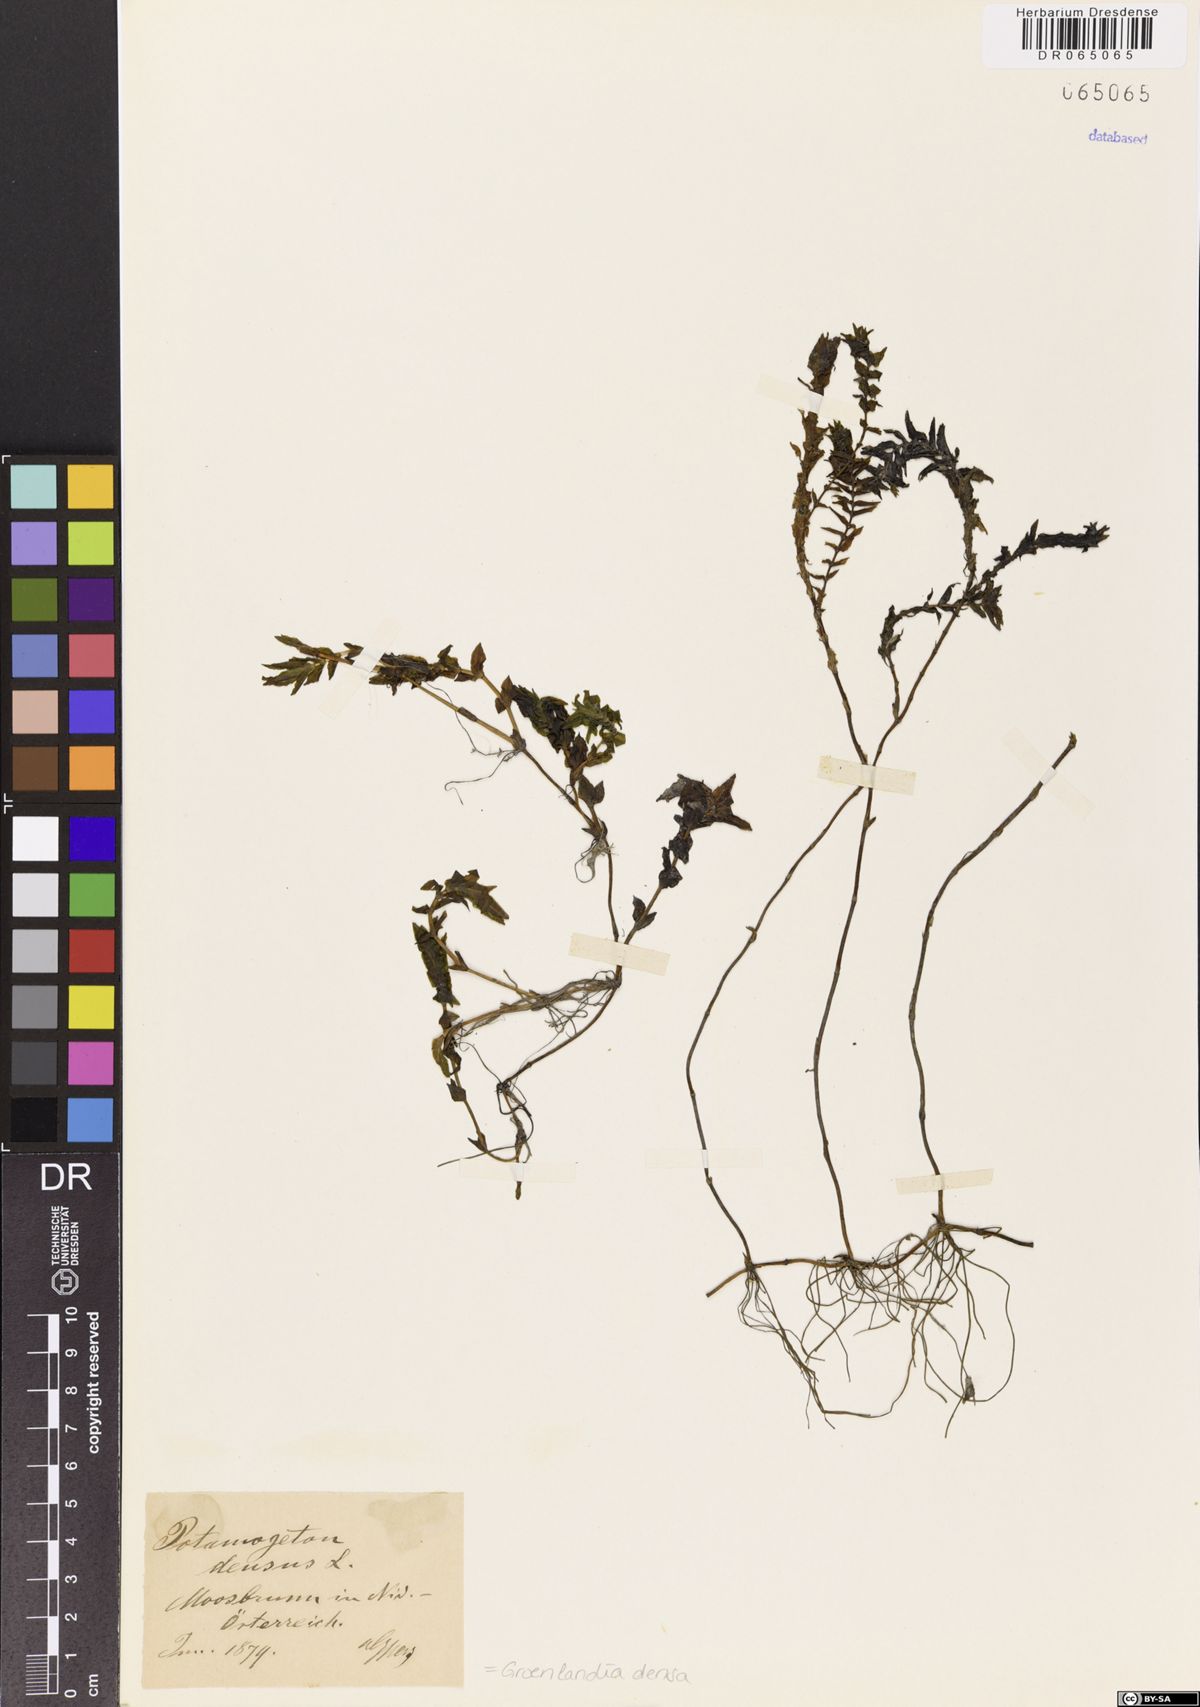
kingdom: Plantae
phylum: Tracheophyta
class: Liliopsida
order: Alismatales
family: Potamogetonaceae
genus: Groenlandia
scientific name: Groenlandia densa
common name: Opposite-leaved pondweed
